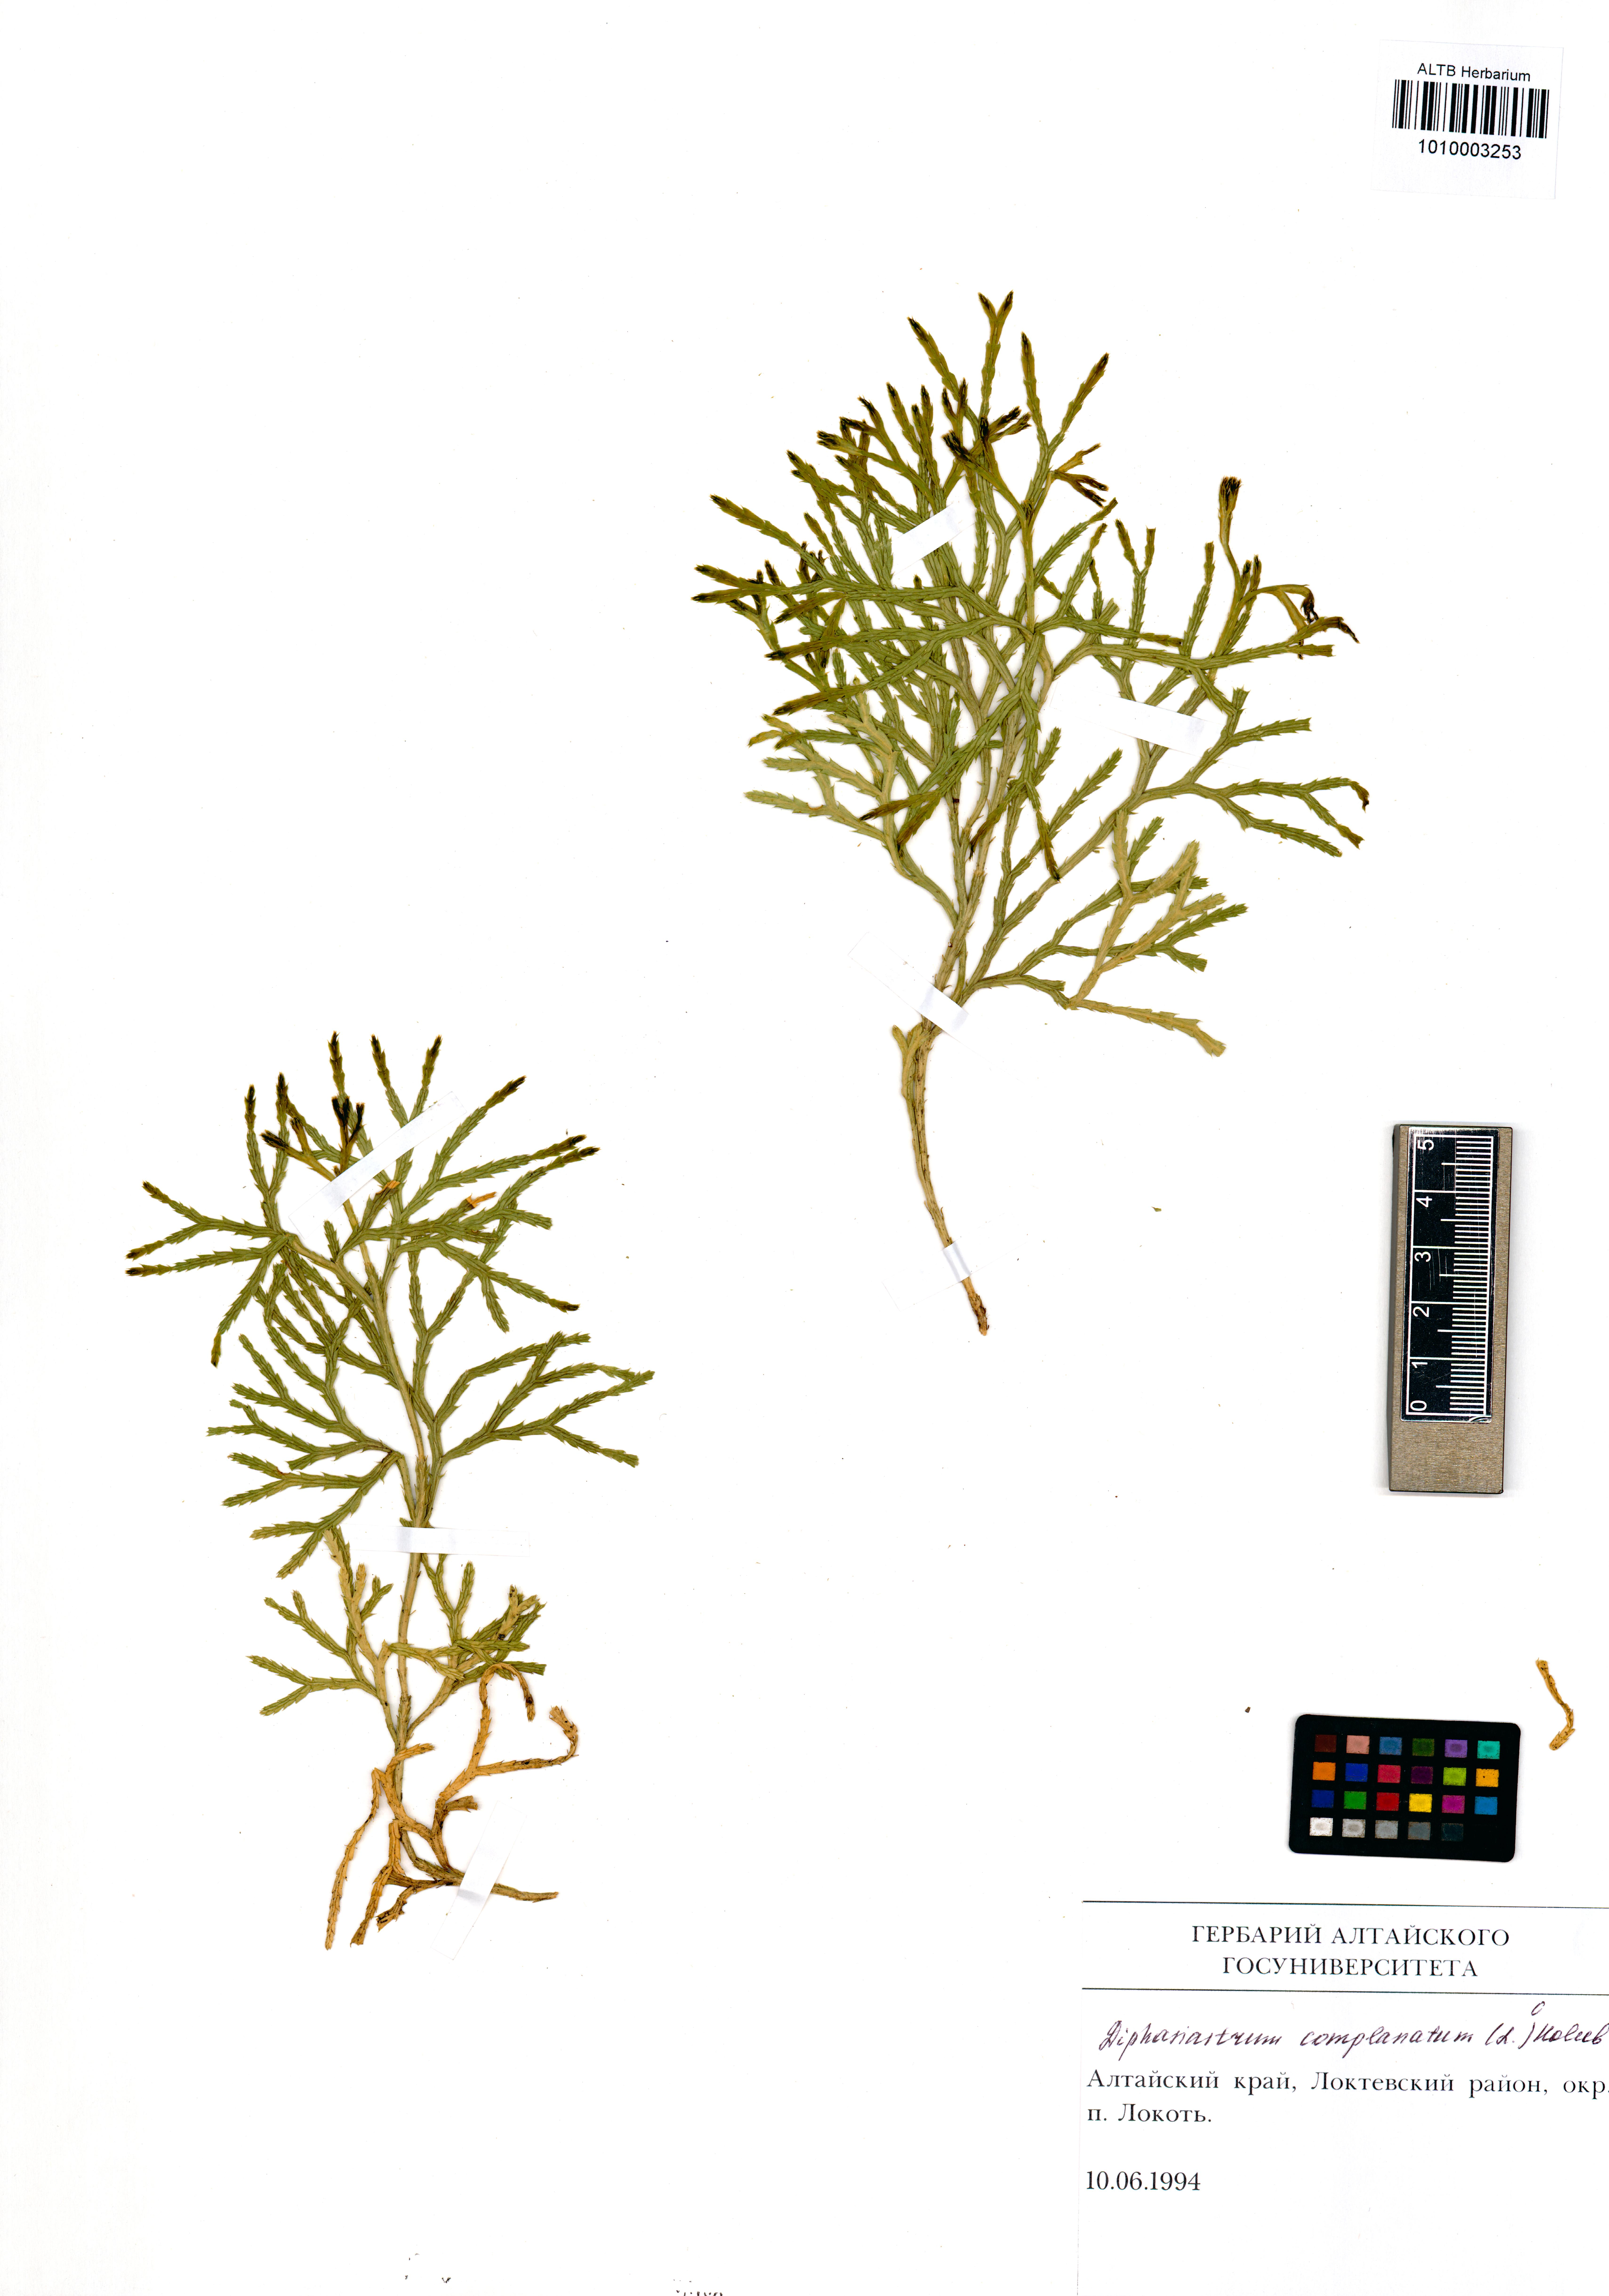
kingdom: Plantae
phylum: Tracheophyta
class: Lycopodiopsida
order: Lycopodiales
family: Lycopodiaceae
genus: Diphasiastrum
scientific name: Diphasiastrum complanatum
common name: Northern running-pine
